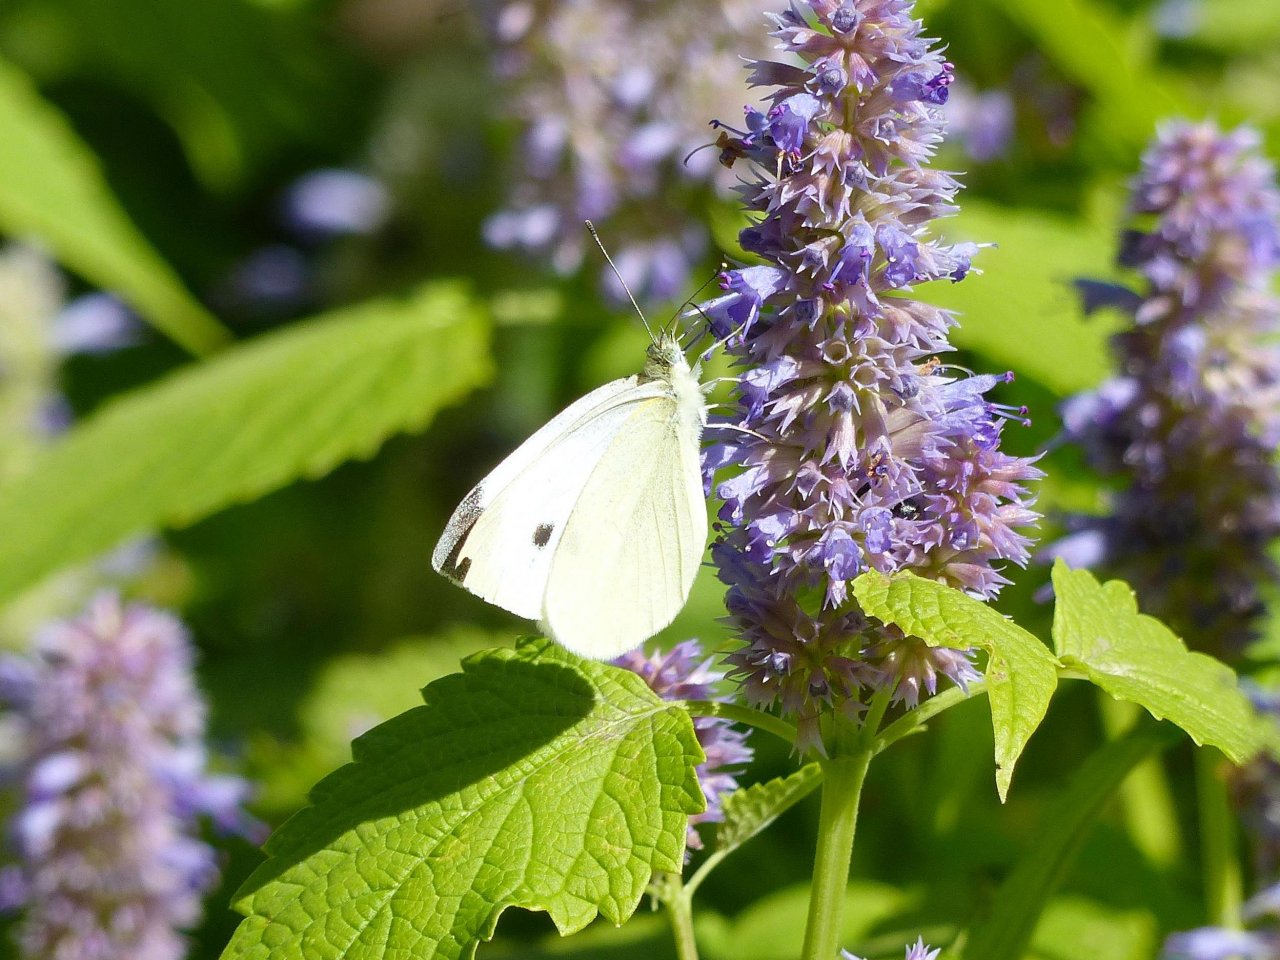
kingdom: Animalia
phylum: Arthropoda
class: Insecta
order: Lepidoptera
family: Pieridae
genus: Pieris
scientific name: Pieris rapae
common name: Cabbage White
